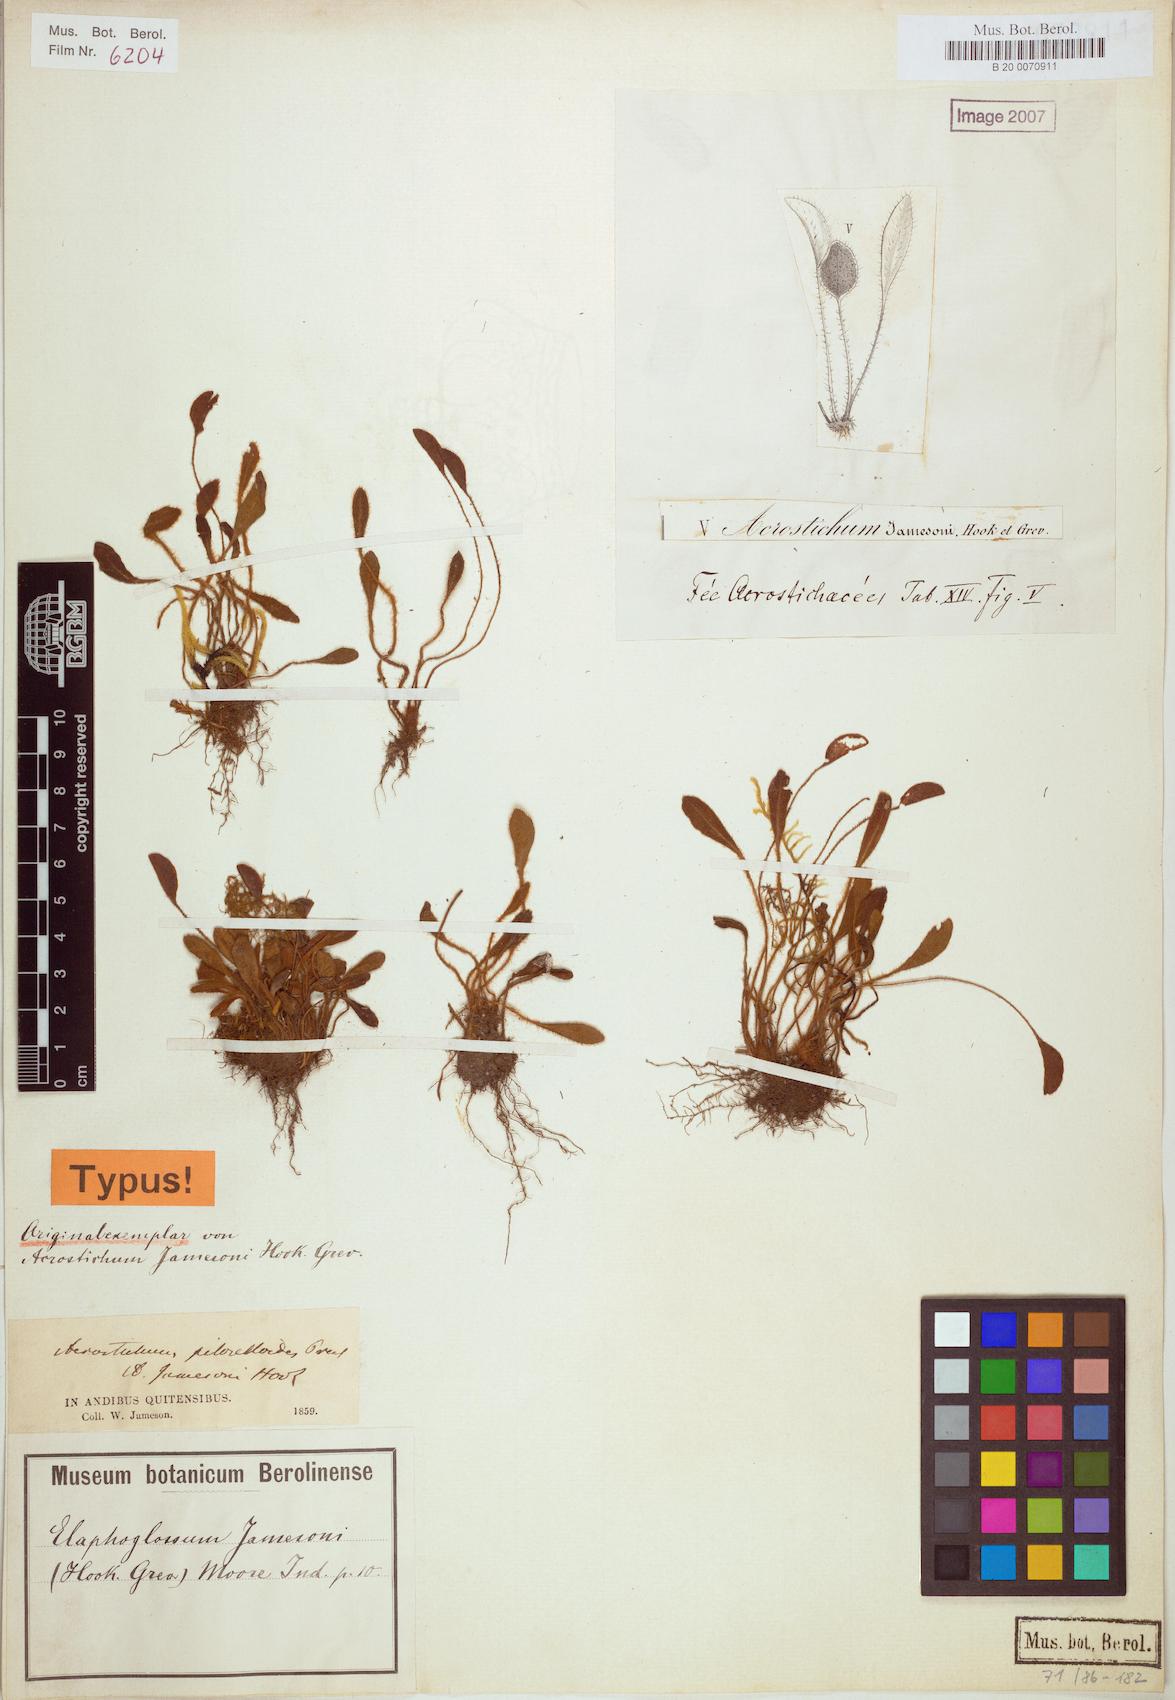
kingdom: Plantae
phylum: Tracheophyta
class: Polypodiopsida
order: Polypodiales
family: Dryopteridaceae
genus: Elaphoglossum
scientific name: Elaphoglossum piloselloides
